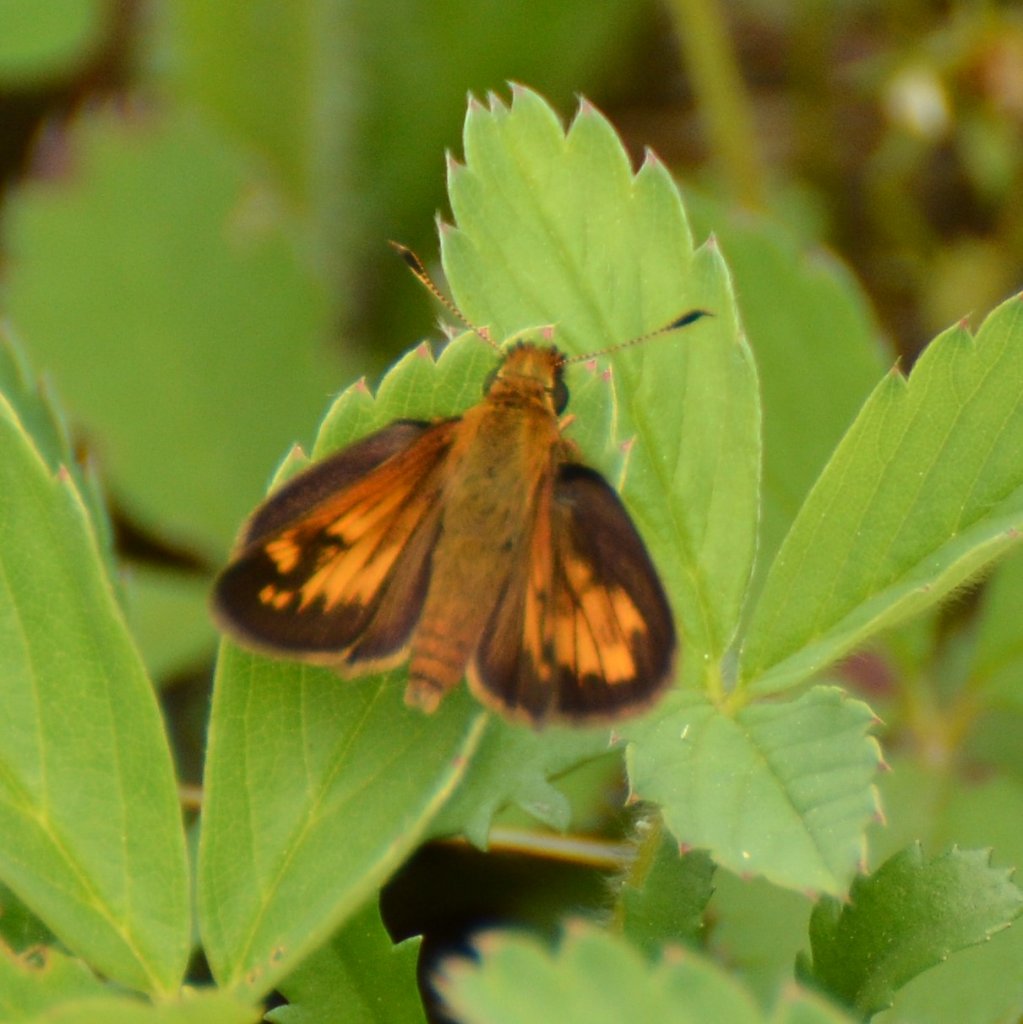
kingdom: Animalia
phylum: Arthropoda
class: Insecta
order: Lepidoptera
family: Hesperiidae
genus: Lon
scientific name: Lon hobomok
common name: Hobomok Skipper
